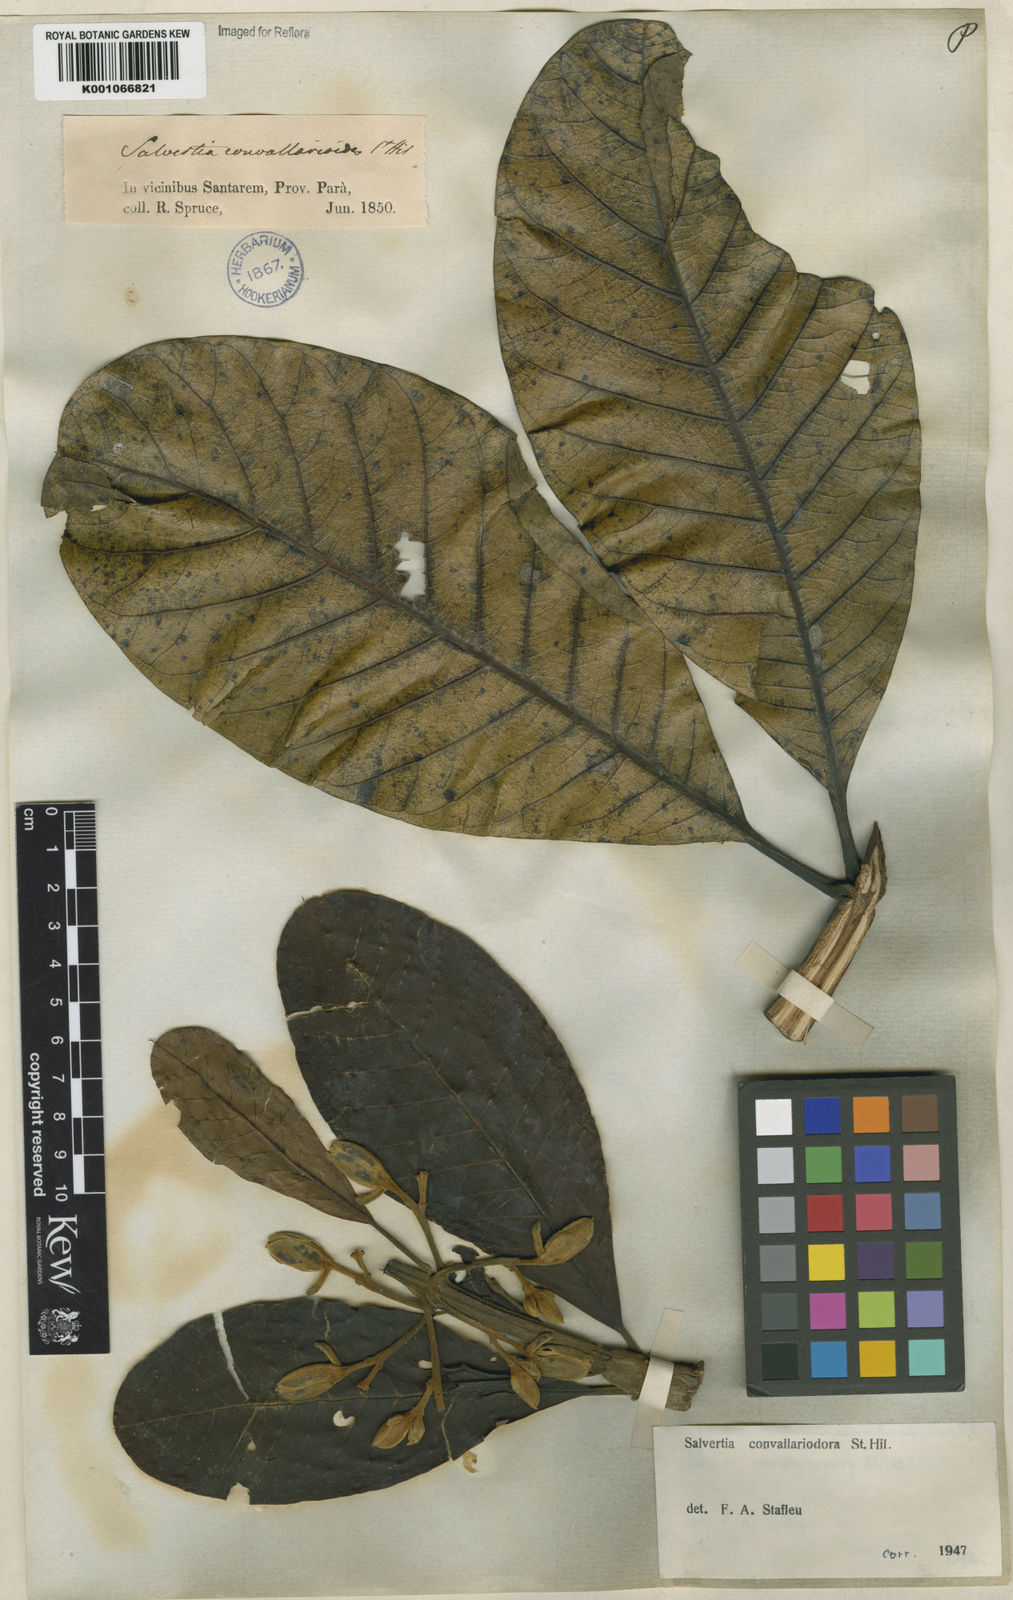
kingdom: Plantae
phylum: Tracheophyta
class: Magnoliopsida
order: Myrtales
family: Vochysiaceae
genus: Salvertia
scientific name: Salvertia convallariodora
